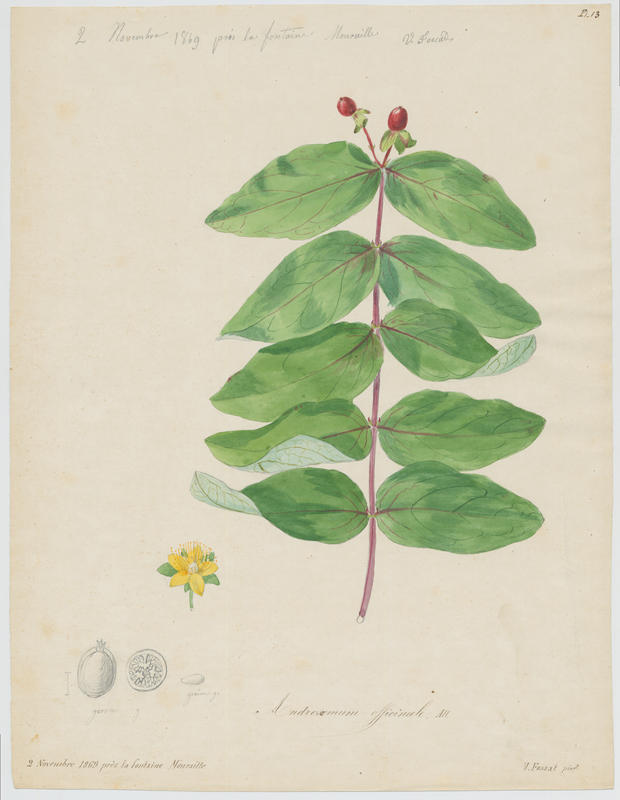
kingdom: Plantae
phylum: Tracheophyta
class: Magnoliopsida
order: Malpighiales
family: Hypericaceae
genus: Hypericum
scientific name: Hypericum androsaemum
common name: Sweet-amber
